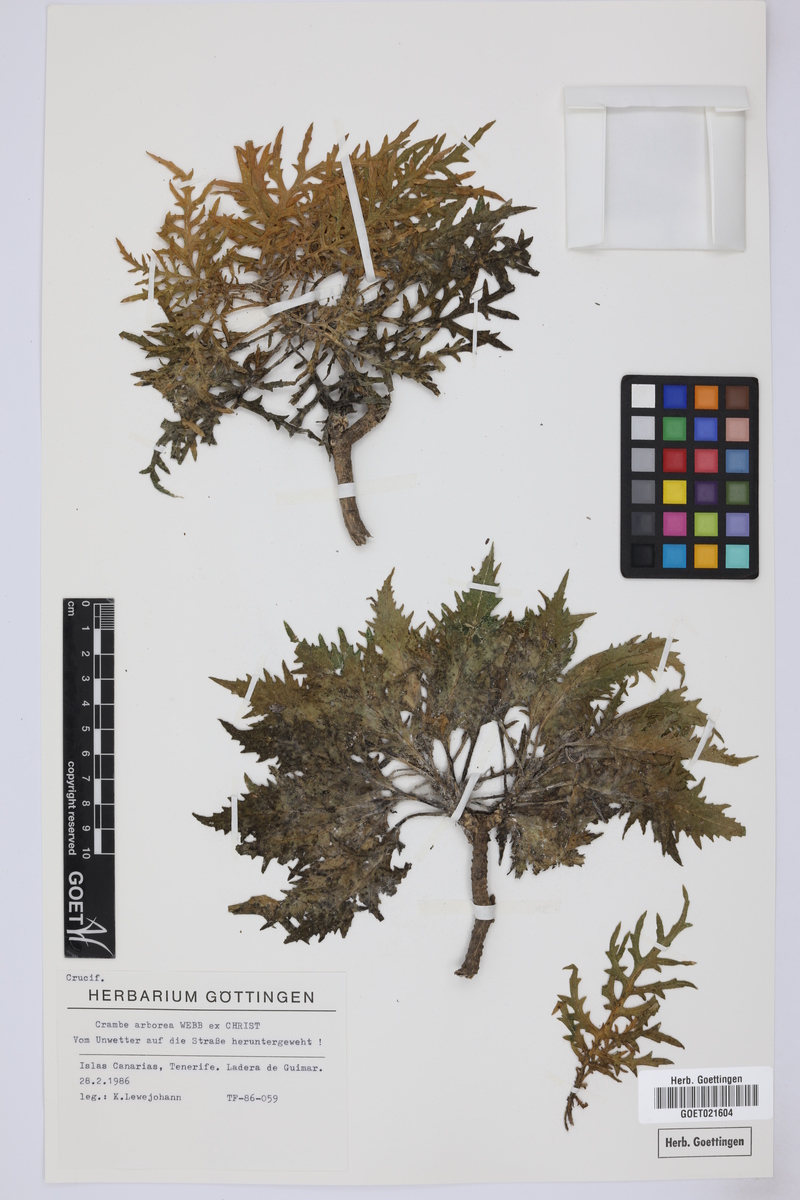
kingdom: Plantae
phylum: Tracheophyta
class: Magnoliopsida
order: Brassicales
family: Brassicaceae
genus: Crambe
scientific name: Crambe arborea
